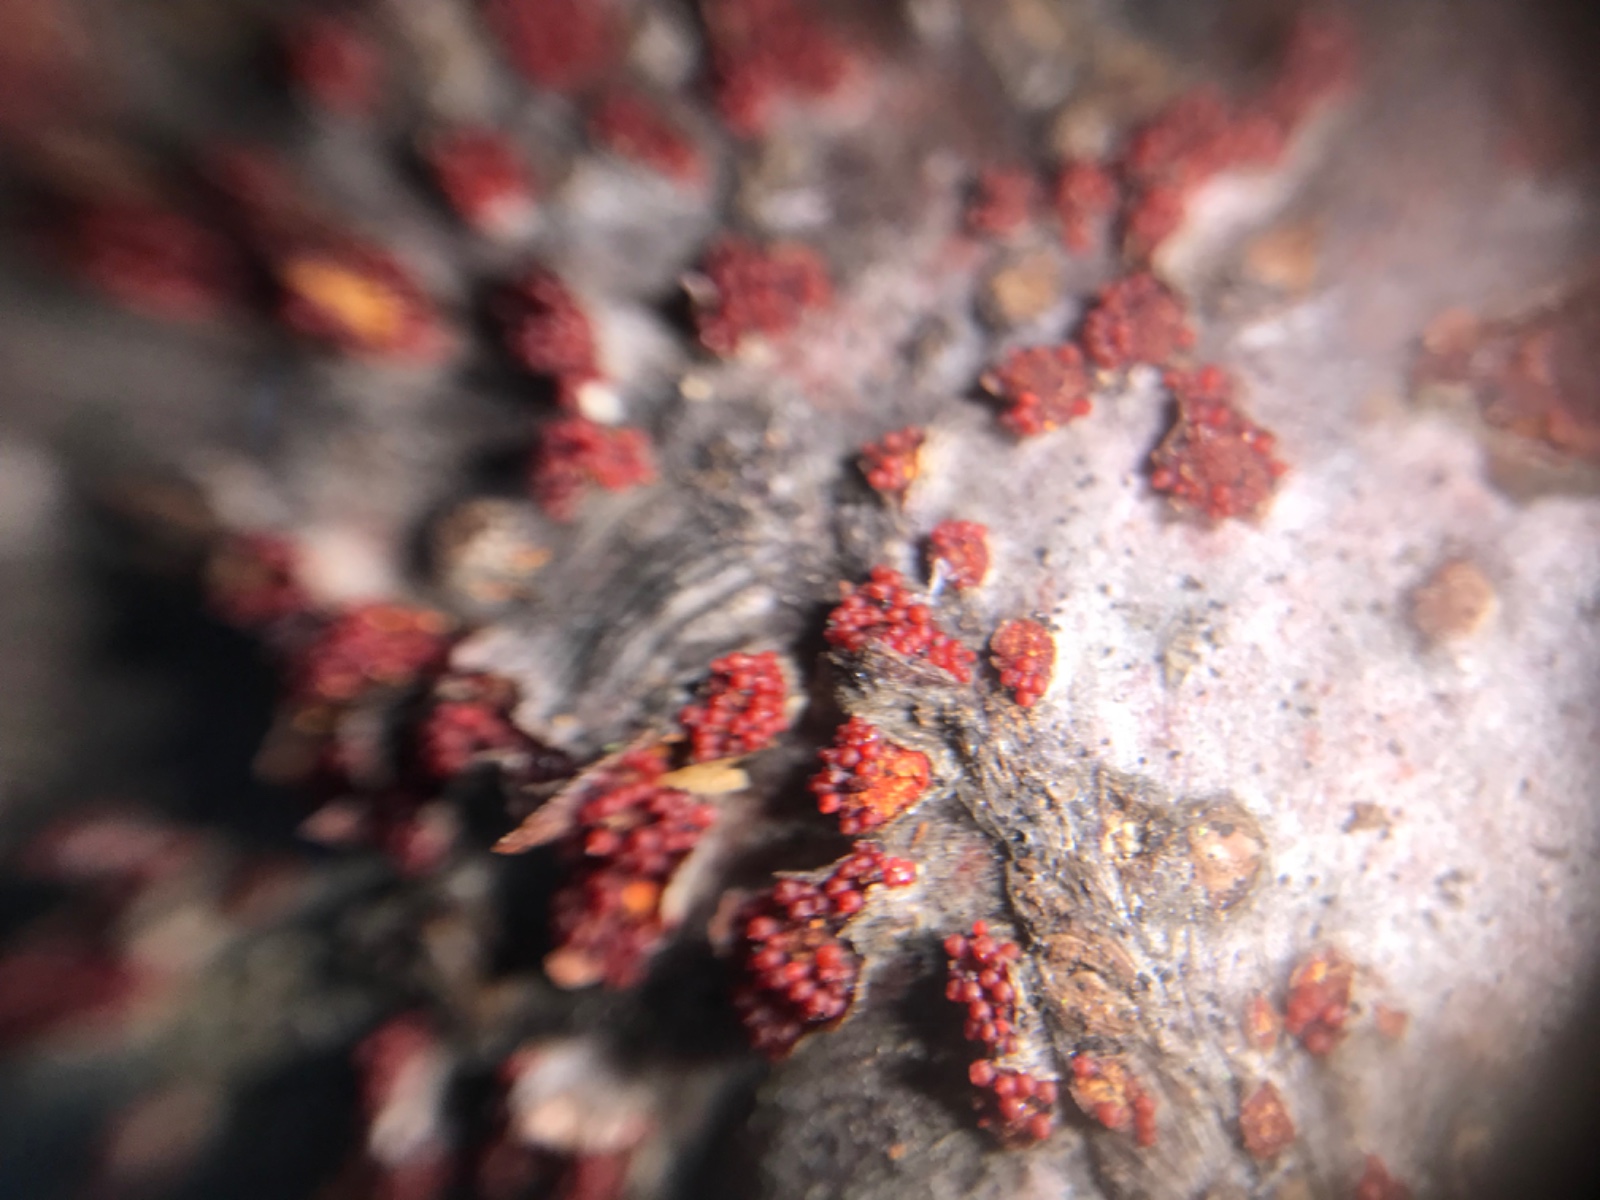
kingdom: Fungi
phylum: Ascomycota
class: Sordariomycetes
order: Hypocreales
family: Nectriaceae
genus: Neonectria
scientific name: Neonectria coccinea
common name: bøgebark-cinnobersvamp
